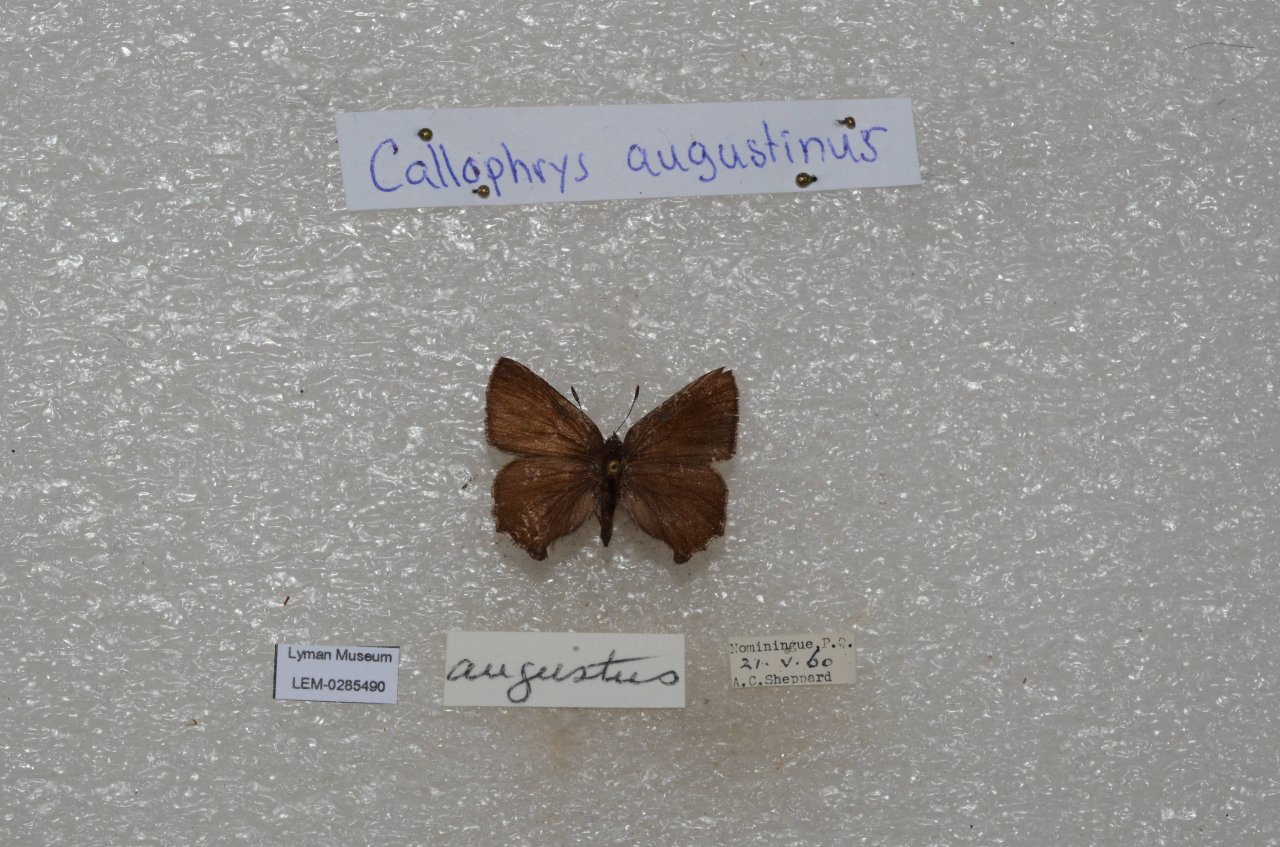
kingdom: Animalia
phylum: Arthropoda
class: Insecta
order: Lepidoptera
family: Lycaenidae
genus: Incisalia
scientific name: Incisalia irioides
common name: Brown Elfin
